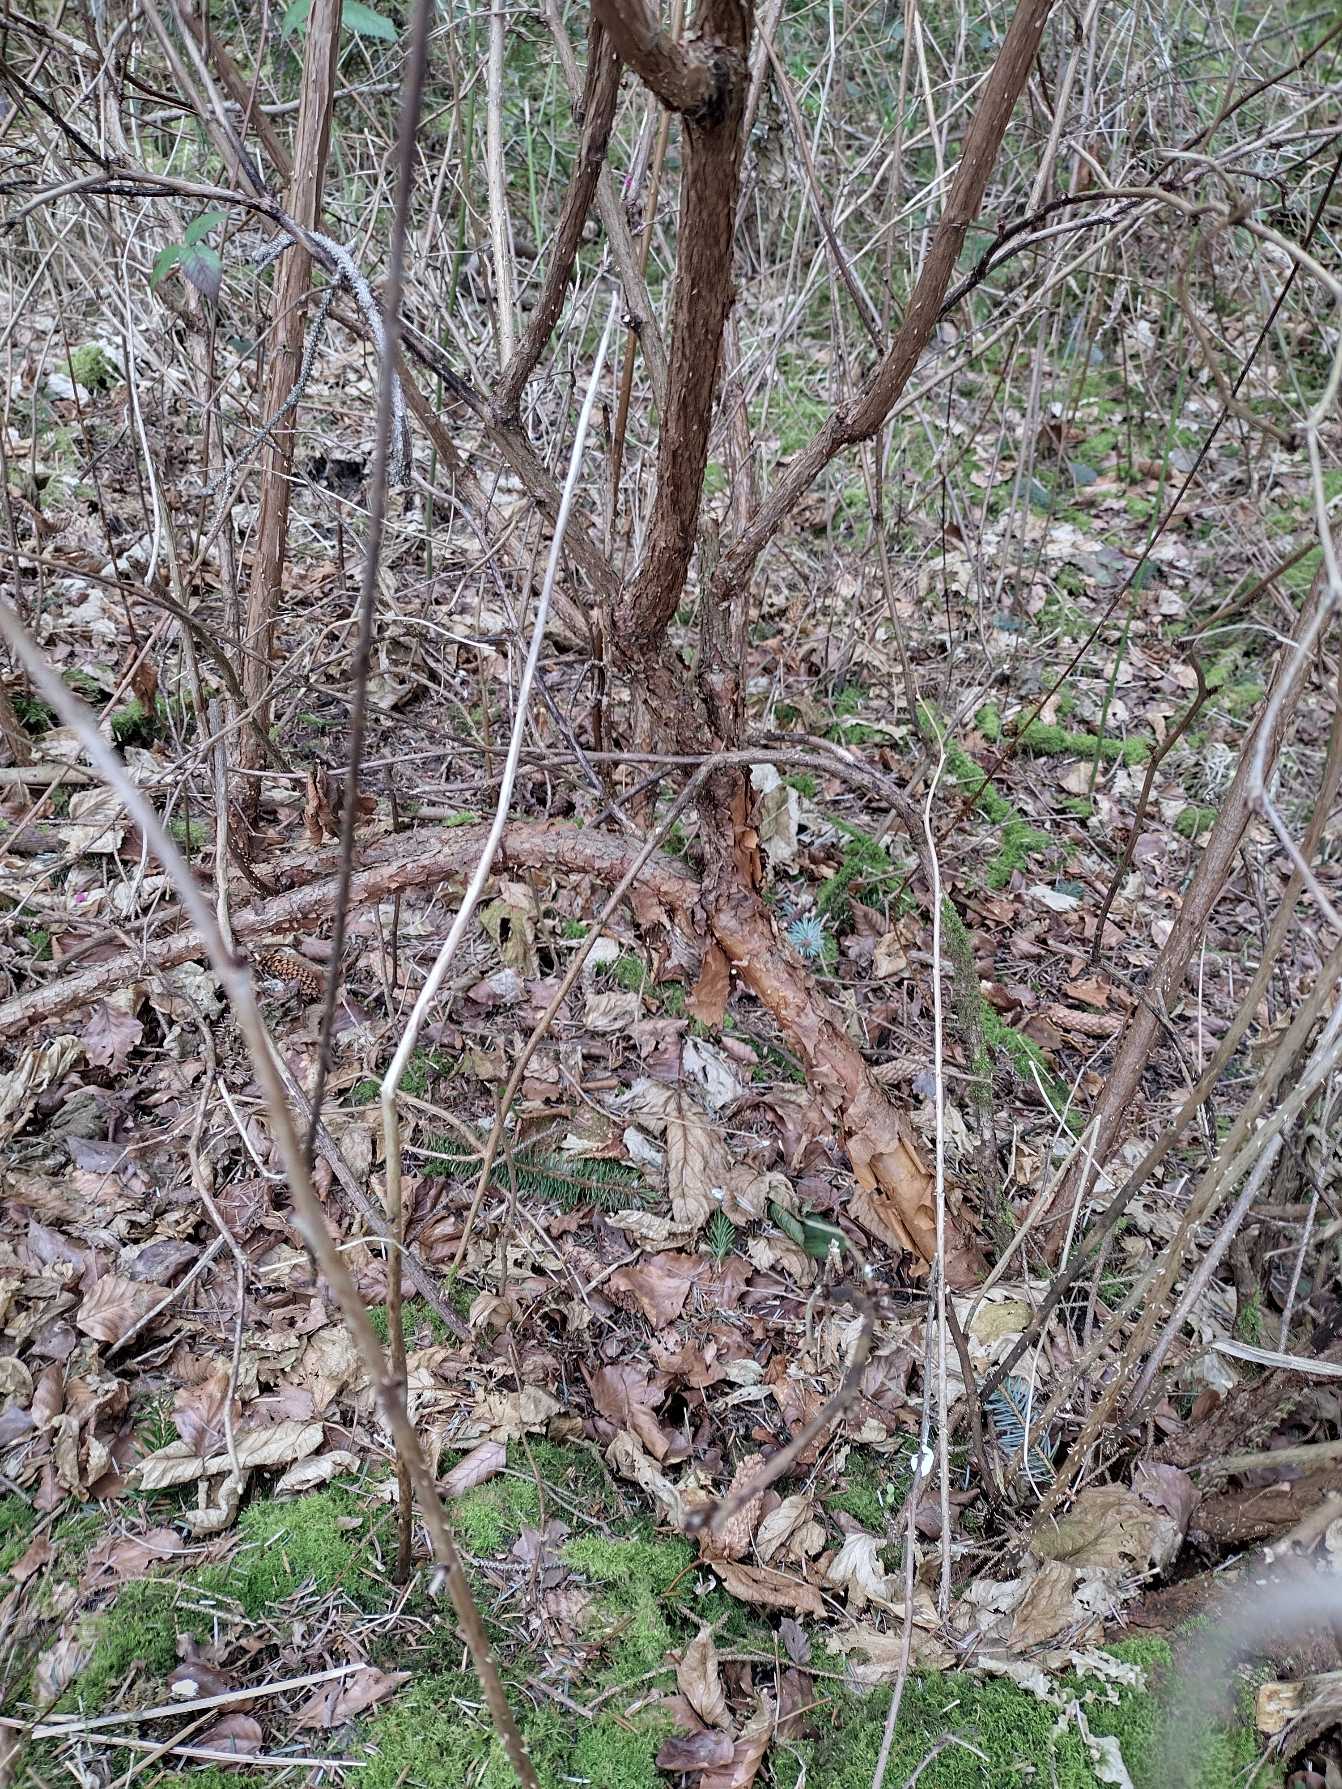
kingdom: Plantae
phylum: Tracheophyta
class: Magnoliopsida
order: Rosales
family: Rosaceae
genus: Rubus
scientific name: Rubus spectabilis
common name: Laksebær
